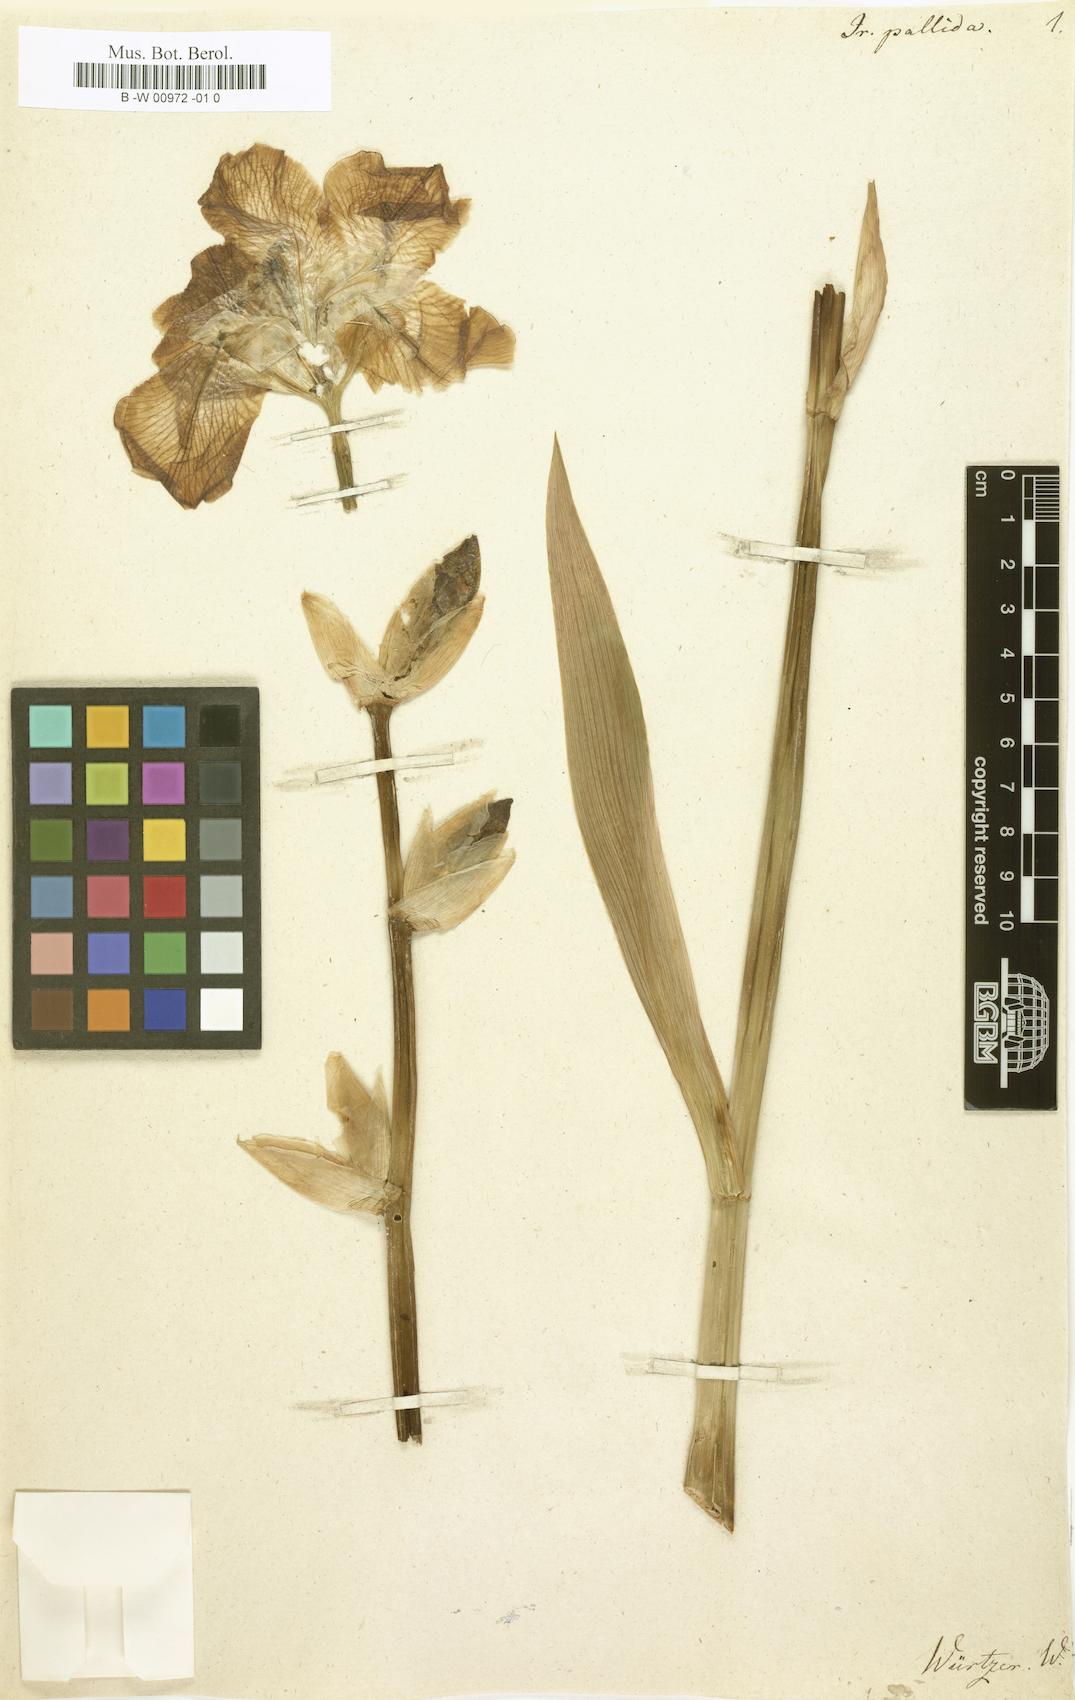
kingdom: Plantae
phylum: Tracheophyta
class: Liliopsida
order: Asparagales
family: Iridaceae
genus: Iris
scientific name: Iris pallida
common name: Sweet iris
